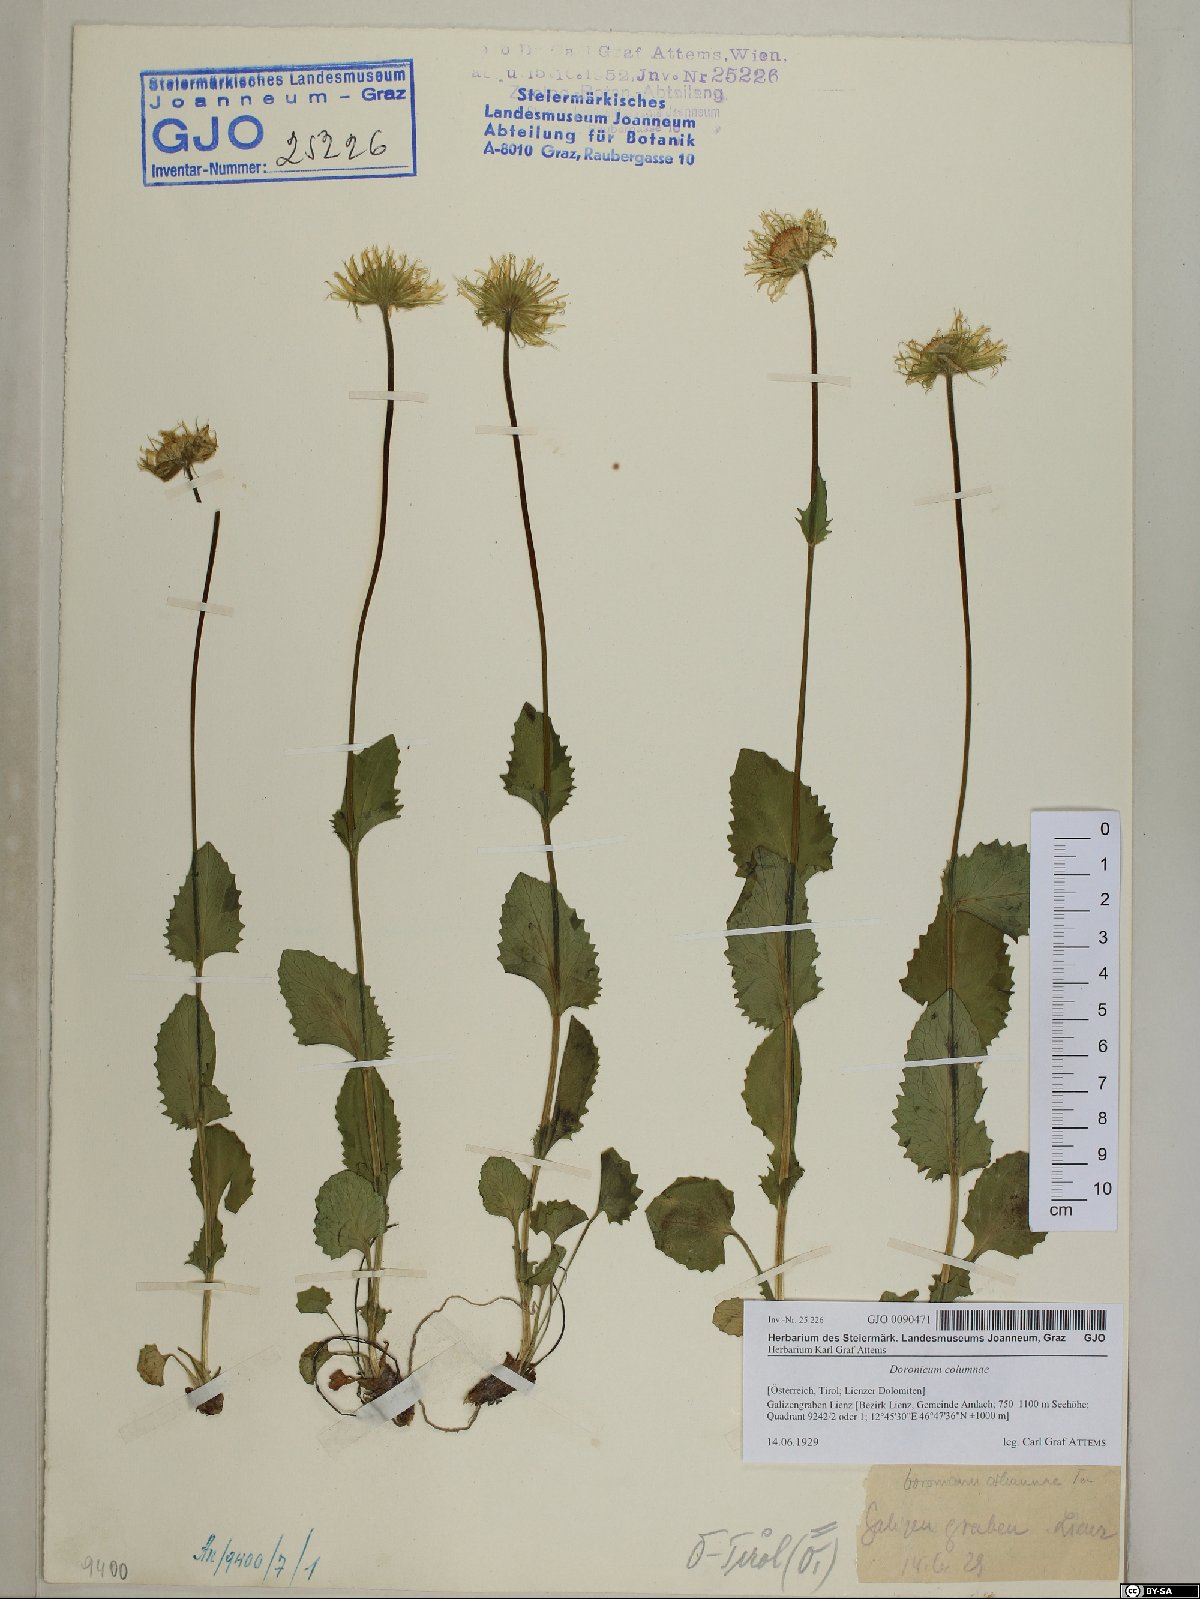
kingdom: Plantae
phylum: Tracheophyta
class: Magnoliopsida
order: Asterales
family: Asteraceae
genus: Doronicum
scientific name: Doronicum columnae
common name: Eastern leopard's-bane
